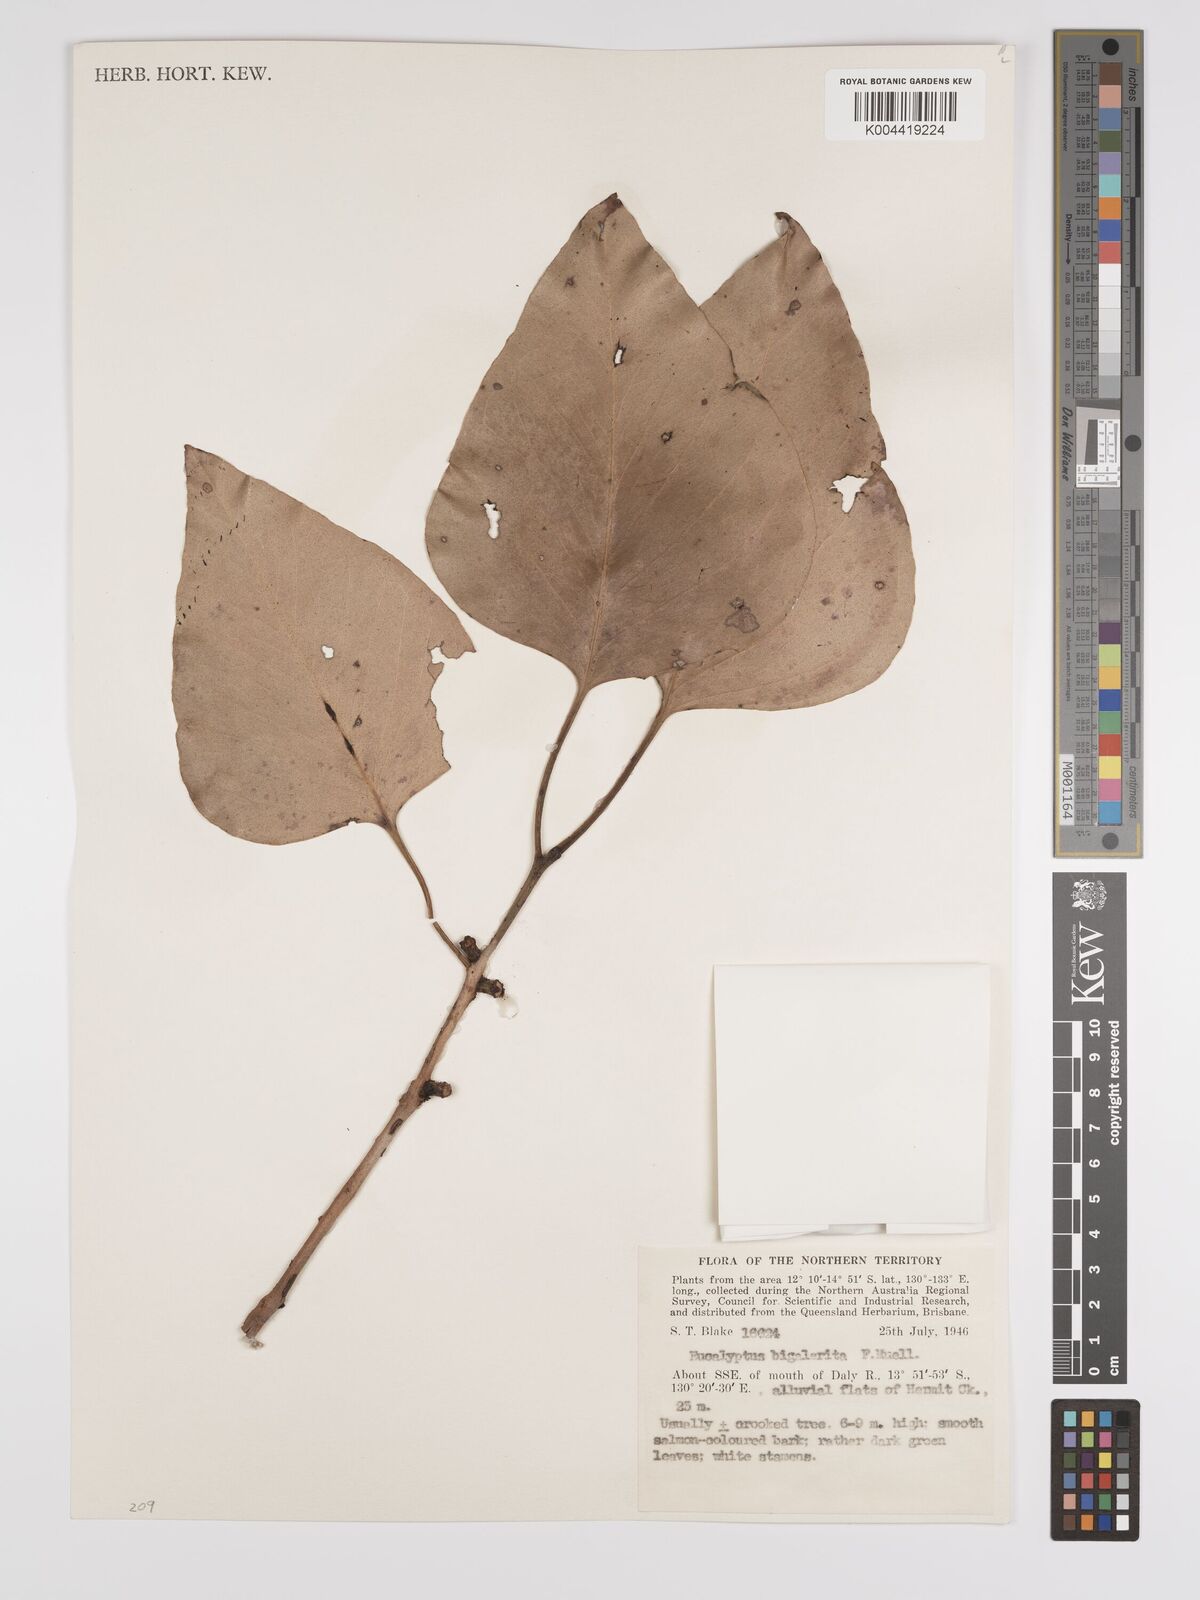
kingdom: Plantae
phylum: Tracheophyta
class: Magnoliopsida
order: Myrtales
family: Myrtaceae
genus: Eucalyptus
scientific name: Eucalyptus bigalerita
